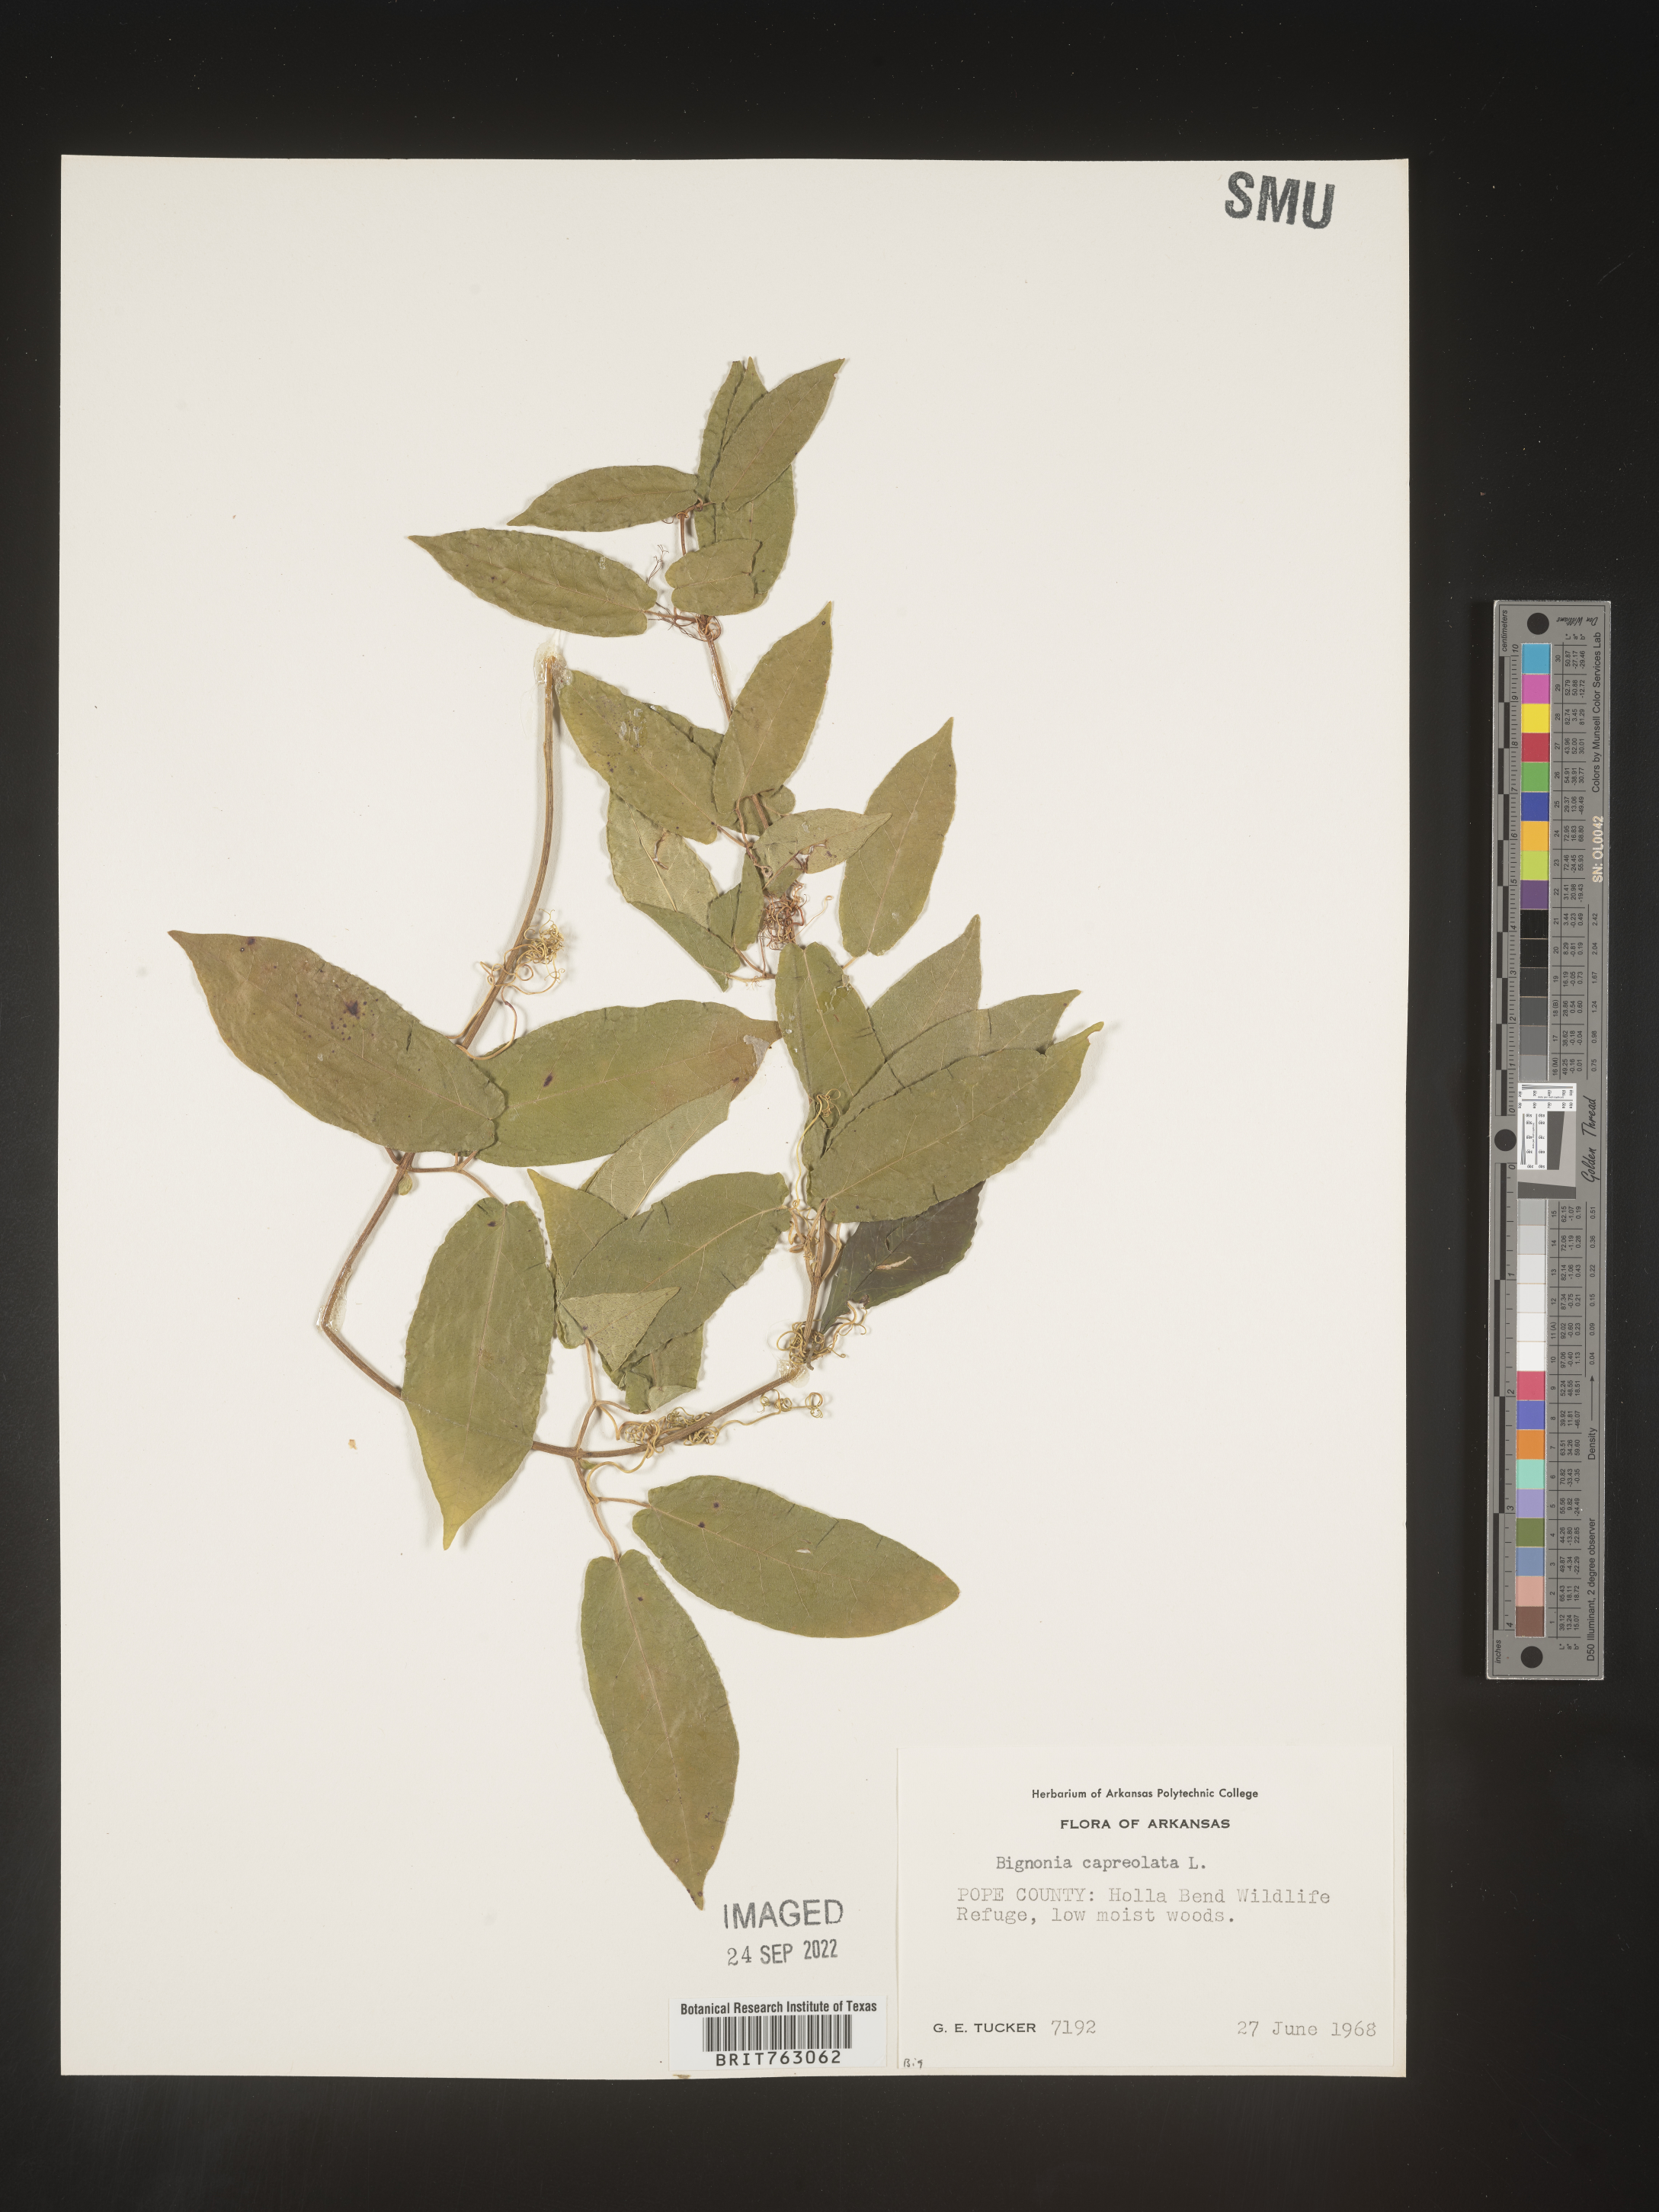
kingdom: Plantae
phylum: Tracheophyta
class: Magnoliopsida
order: Lamiales
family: Bignoniaceae
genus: Bignonia
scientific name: Bignonia capreolata
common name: Crossvine
